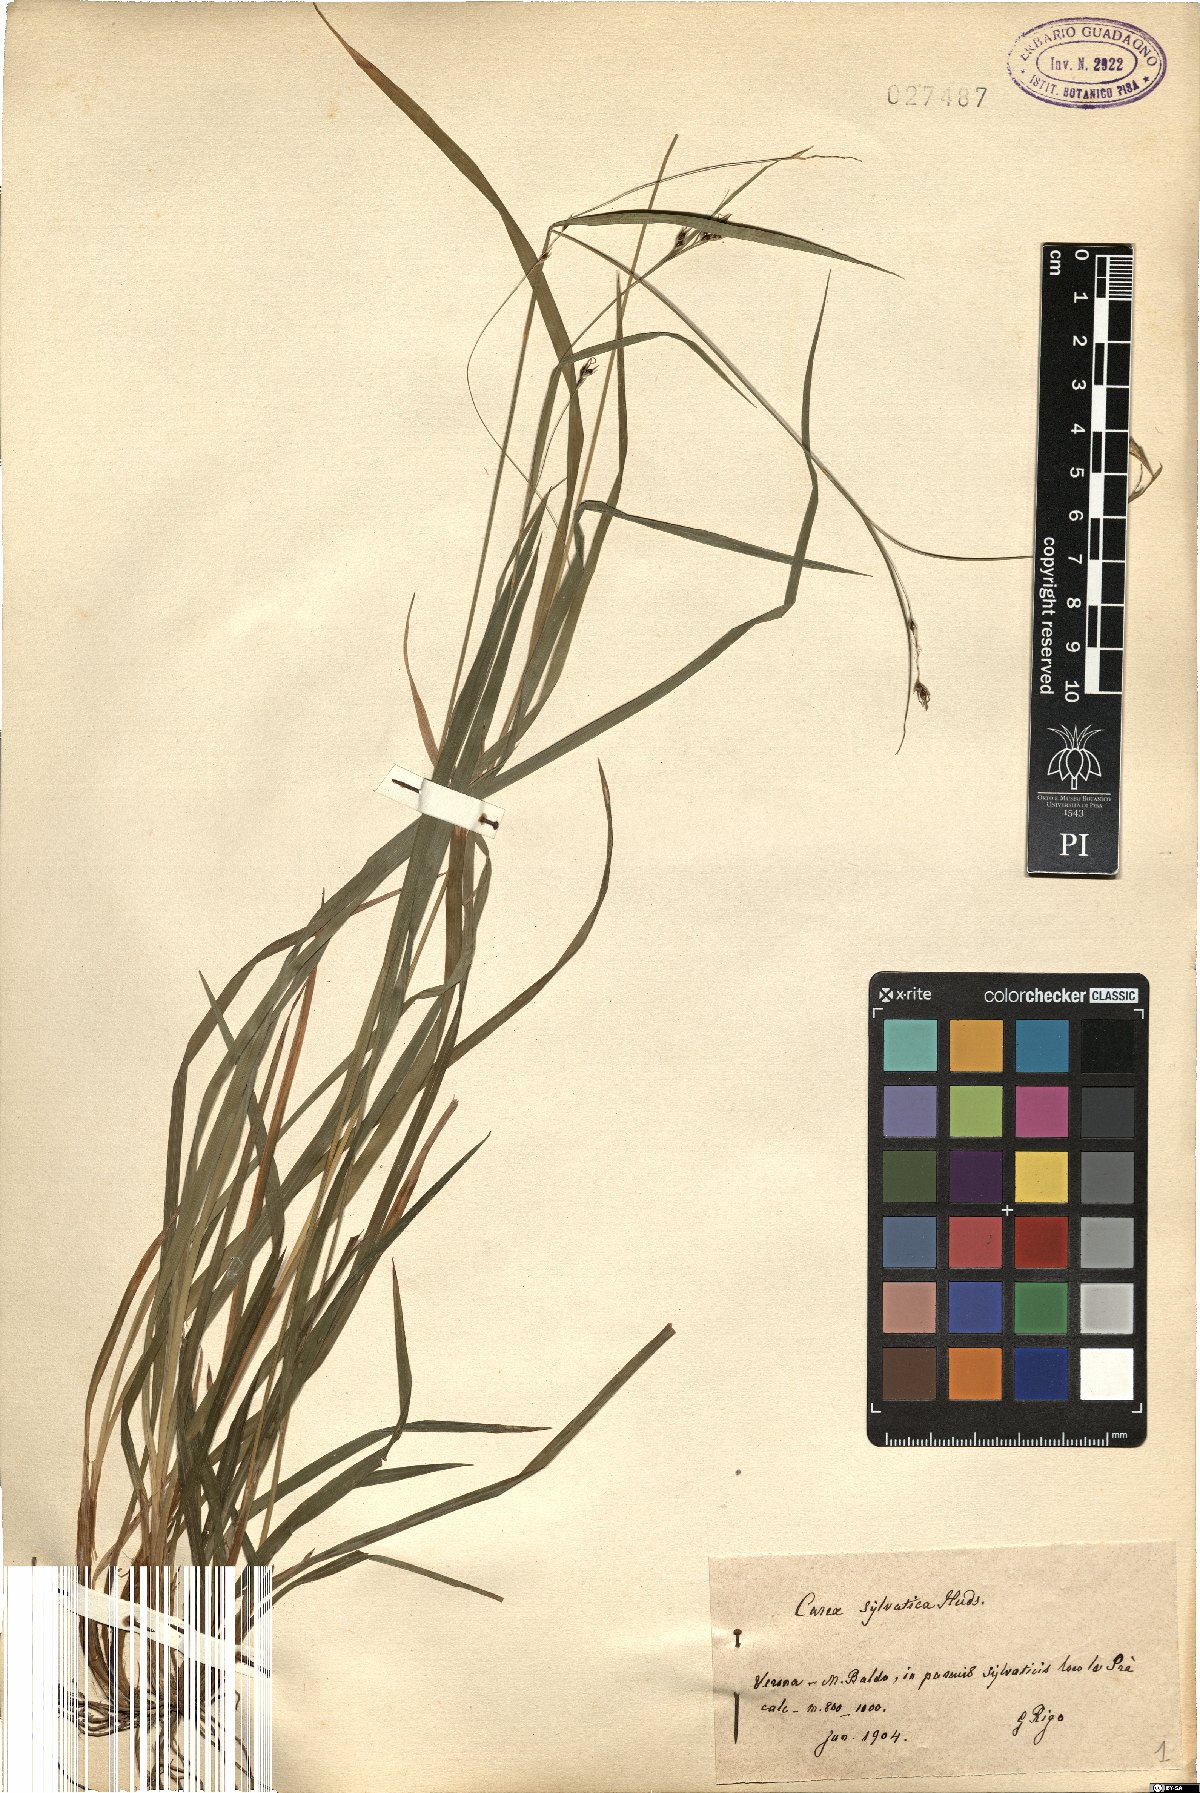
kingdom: Plantae
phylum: Tracheophyta
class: Liliopsida
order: Poales
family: Cyperaceae
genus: Carex
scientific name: Carex sylvatica
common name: Wood-sedge
